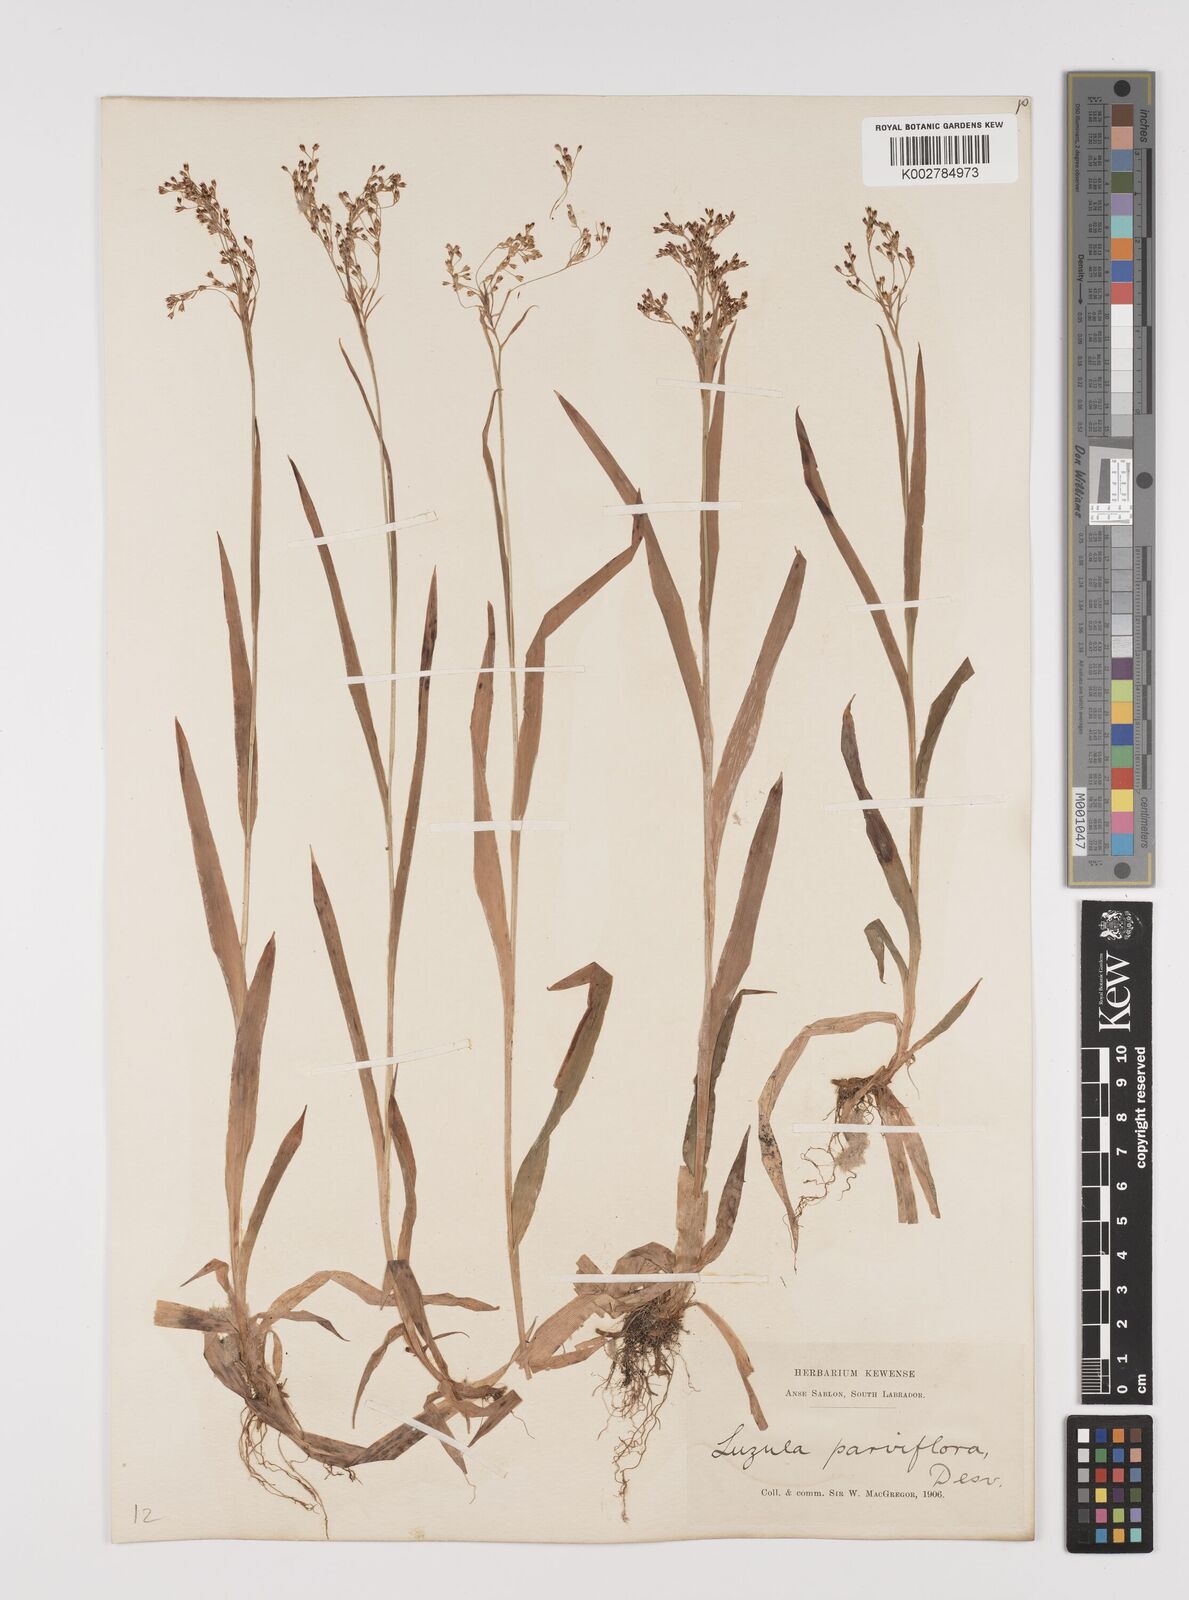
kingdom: Plantae
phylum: Tracheophyta
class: Liliopsida
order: Poales
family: Juncaceae
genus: Luzula
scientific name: Luzula parviflora
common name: Millet woodrush
